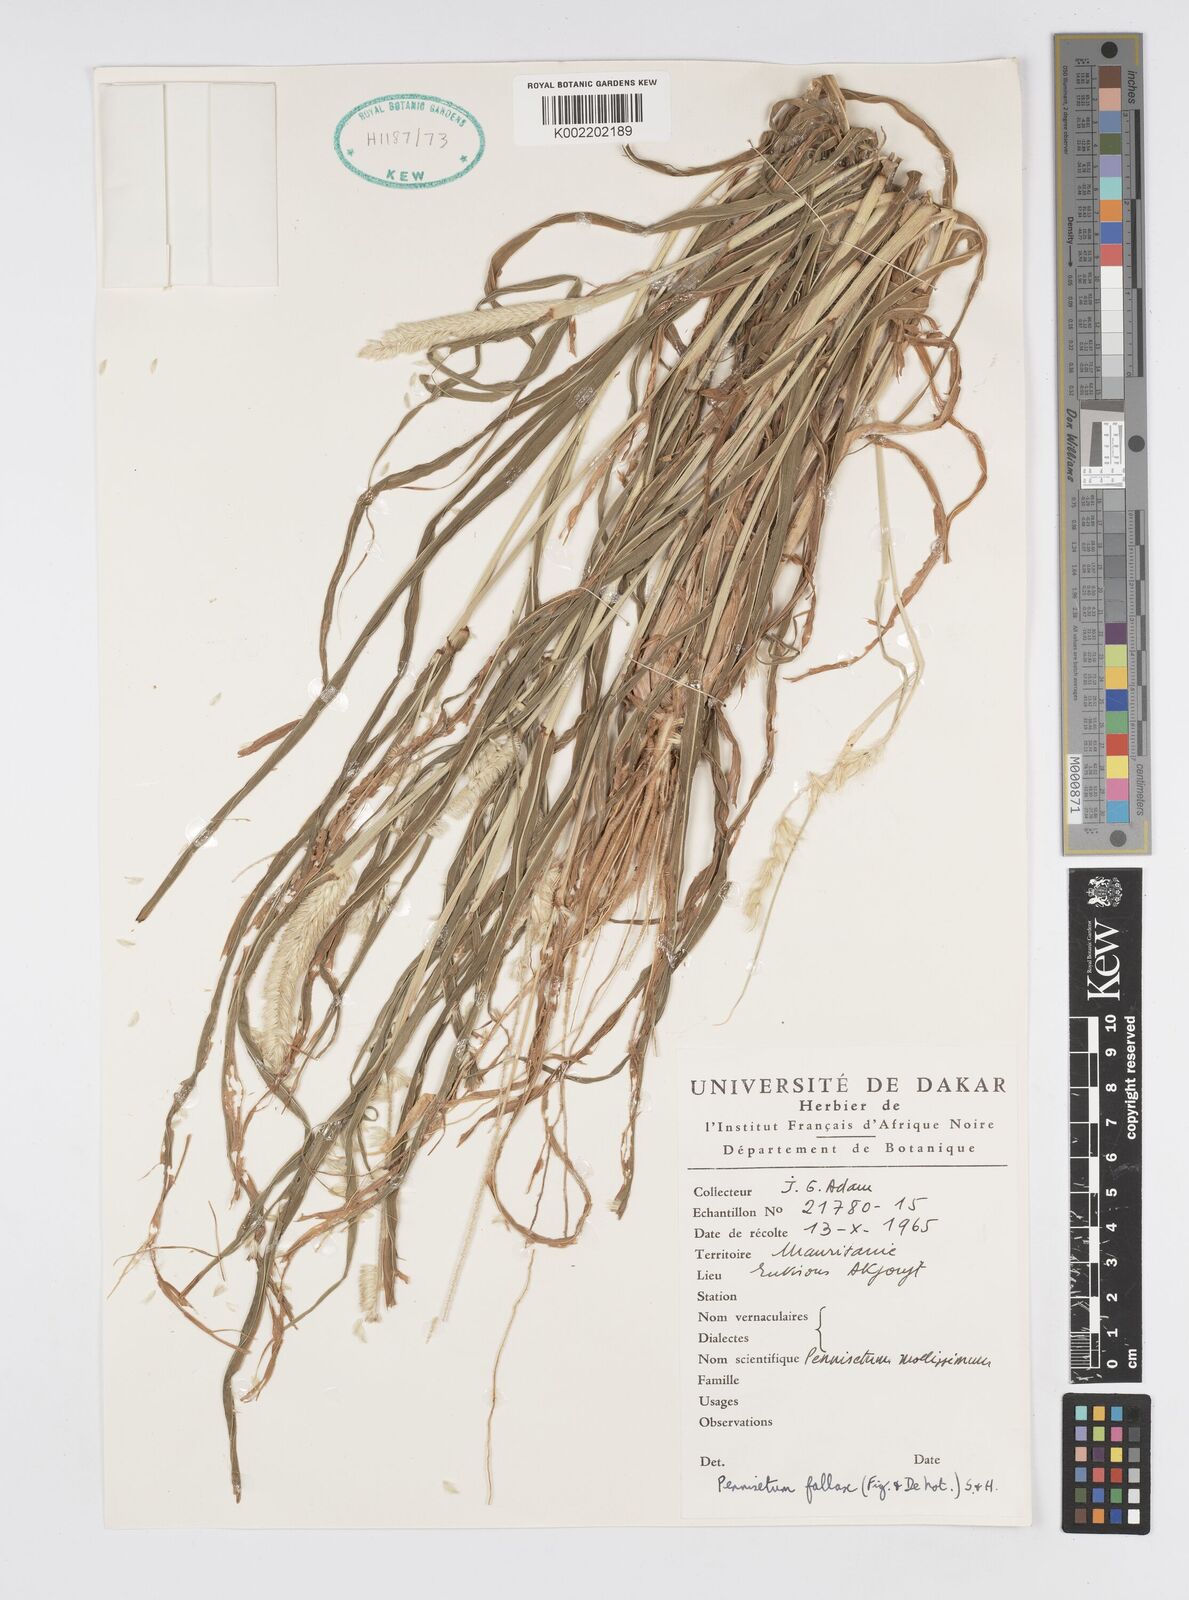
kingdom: Plantae
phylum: Tracheophyta
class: Liliopsida
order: Poales
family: Poaceae
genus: Cenchrus
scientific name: Cenchrus violaceus
